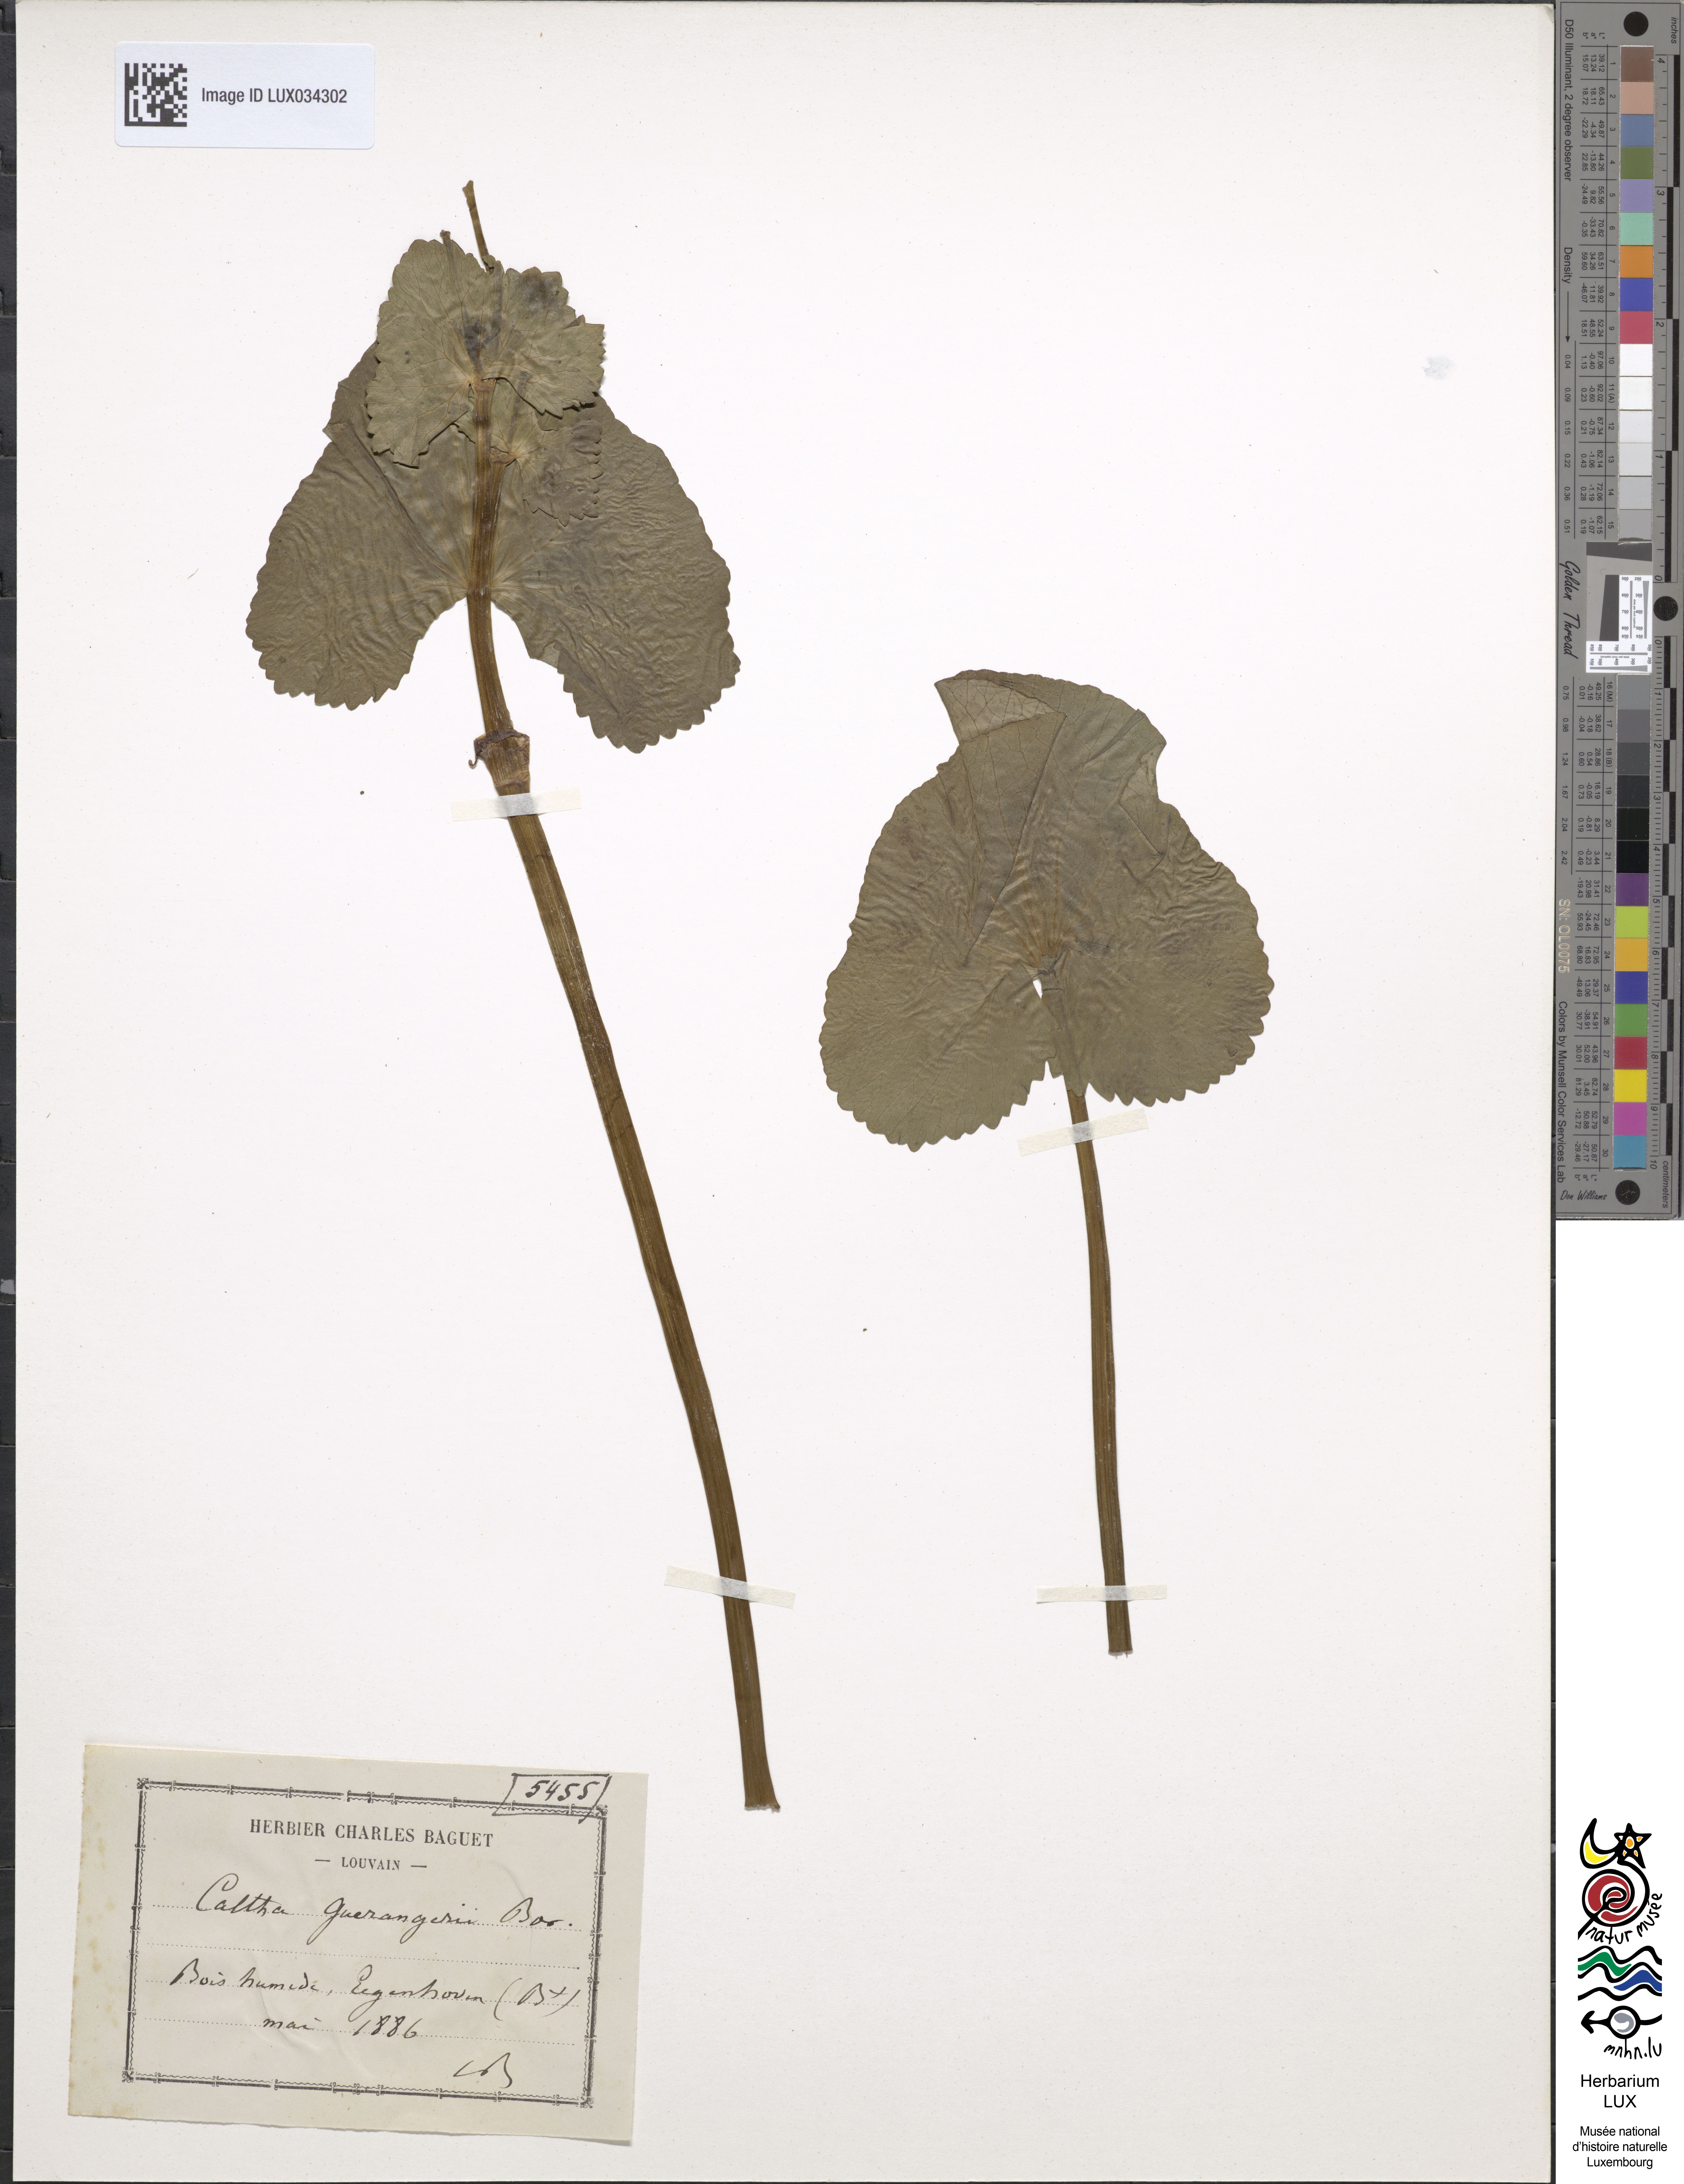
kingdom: Plantae
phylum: Tracheophyta
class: Magnoliopsida
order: Ranunculales
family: Ranunculaceae
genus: Caltha
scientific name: Caltha palustris
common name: Marsh marigold
